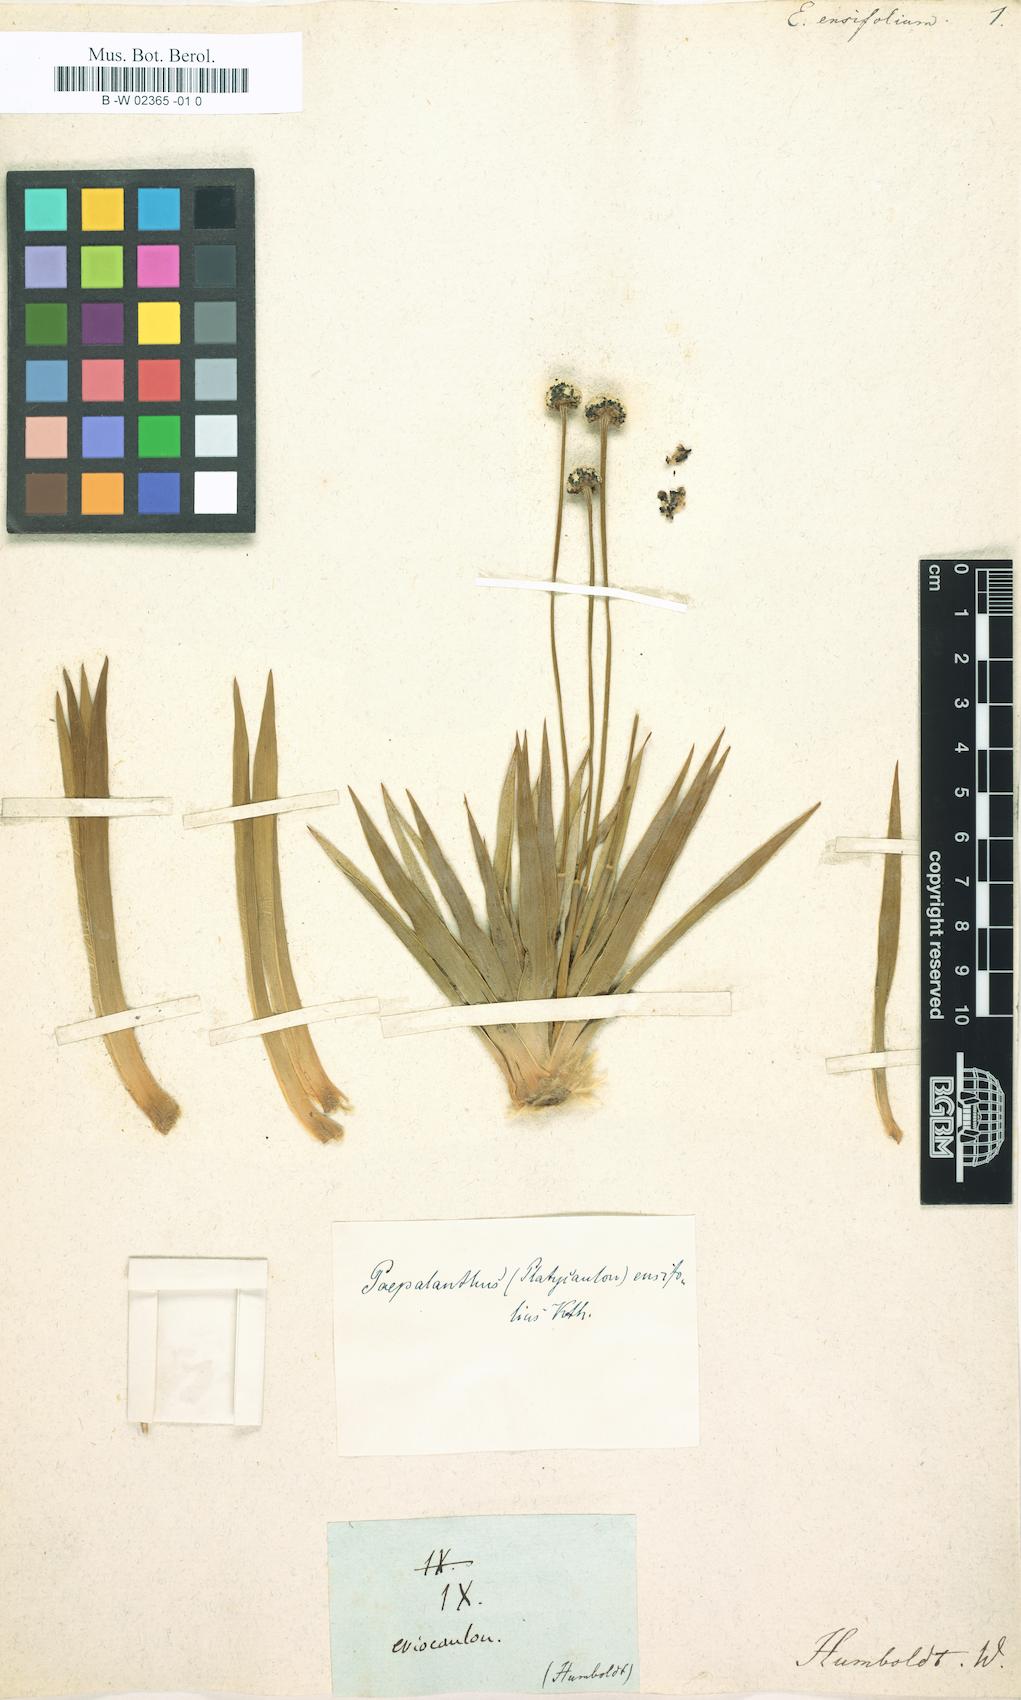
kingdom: Plantae
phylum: Tracheophyta
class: Liliopsida
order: Poales
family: Eriocaulaceae
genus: Paepalanthus
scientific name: Paepalanthus ensifolius
